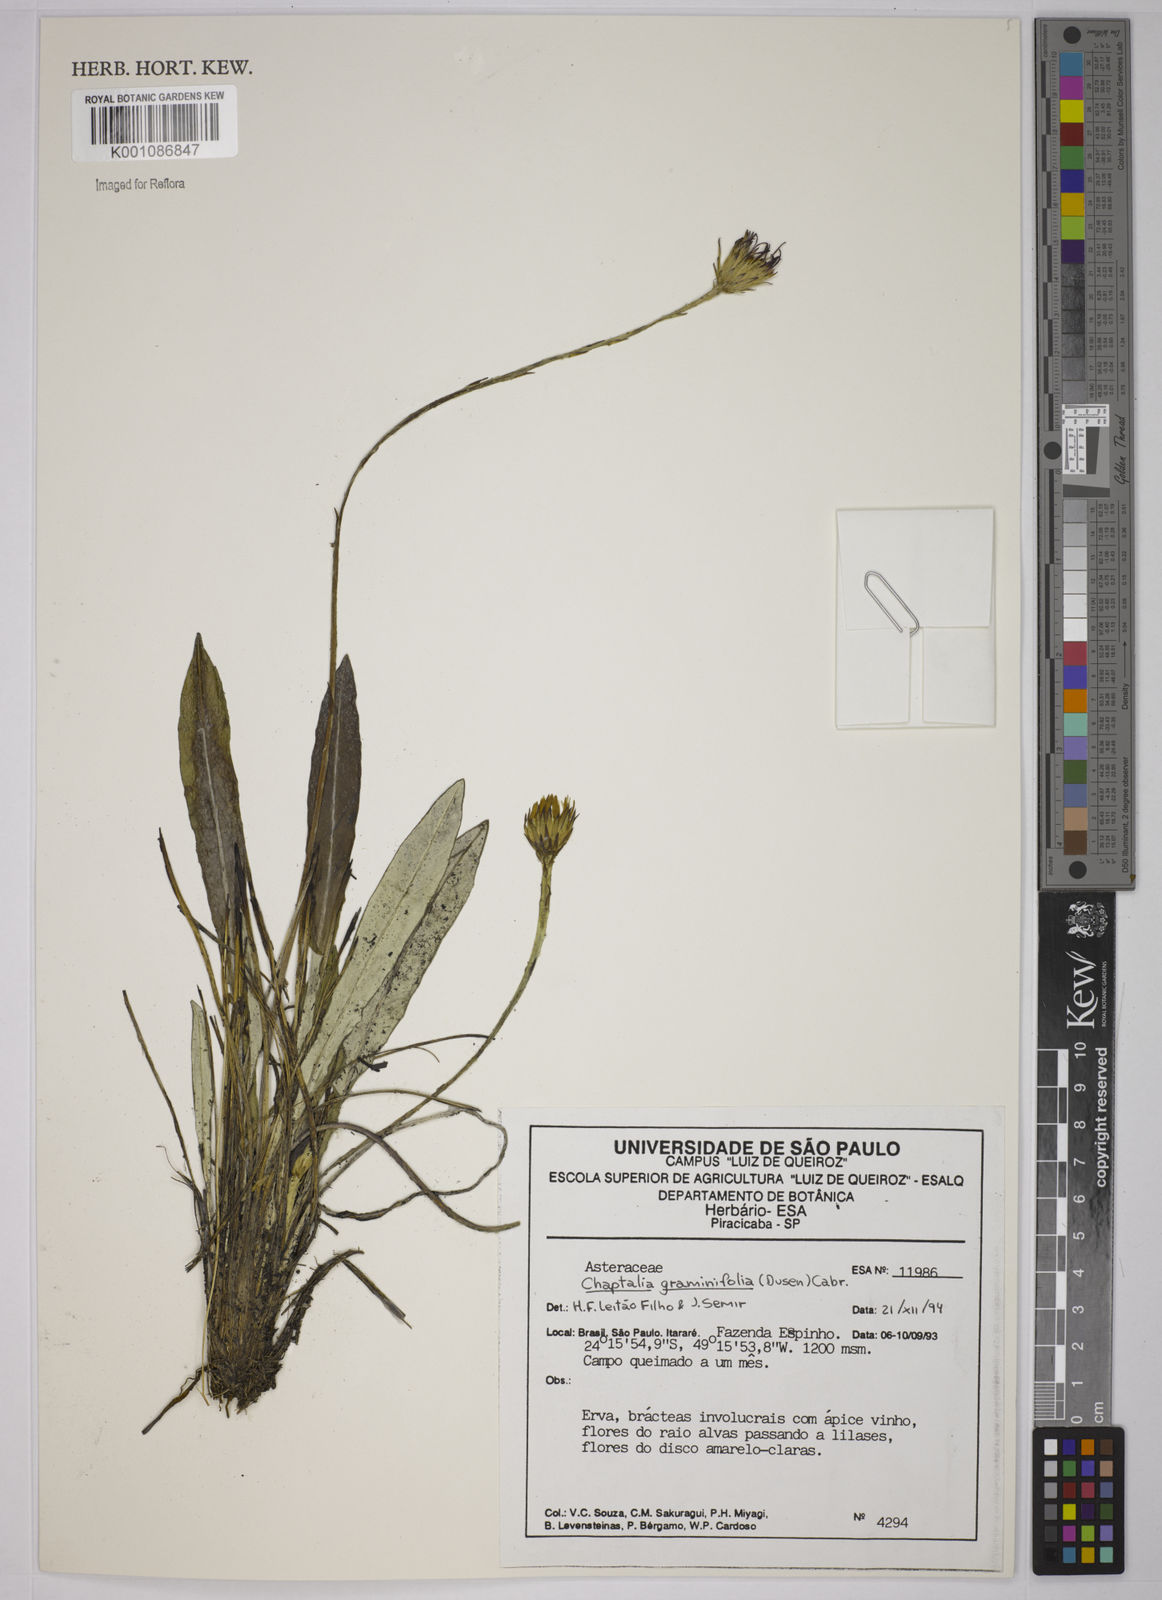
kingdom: Plantae
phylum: Tracheophyta
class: Magnoliopsida
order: Asterales
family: Asteraceae
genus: Chaptalia
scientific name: Chaptalia
